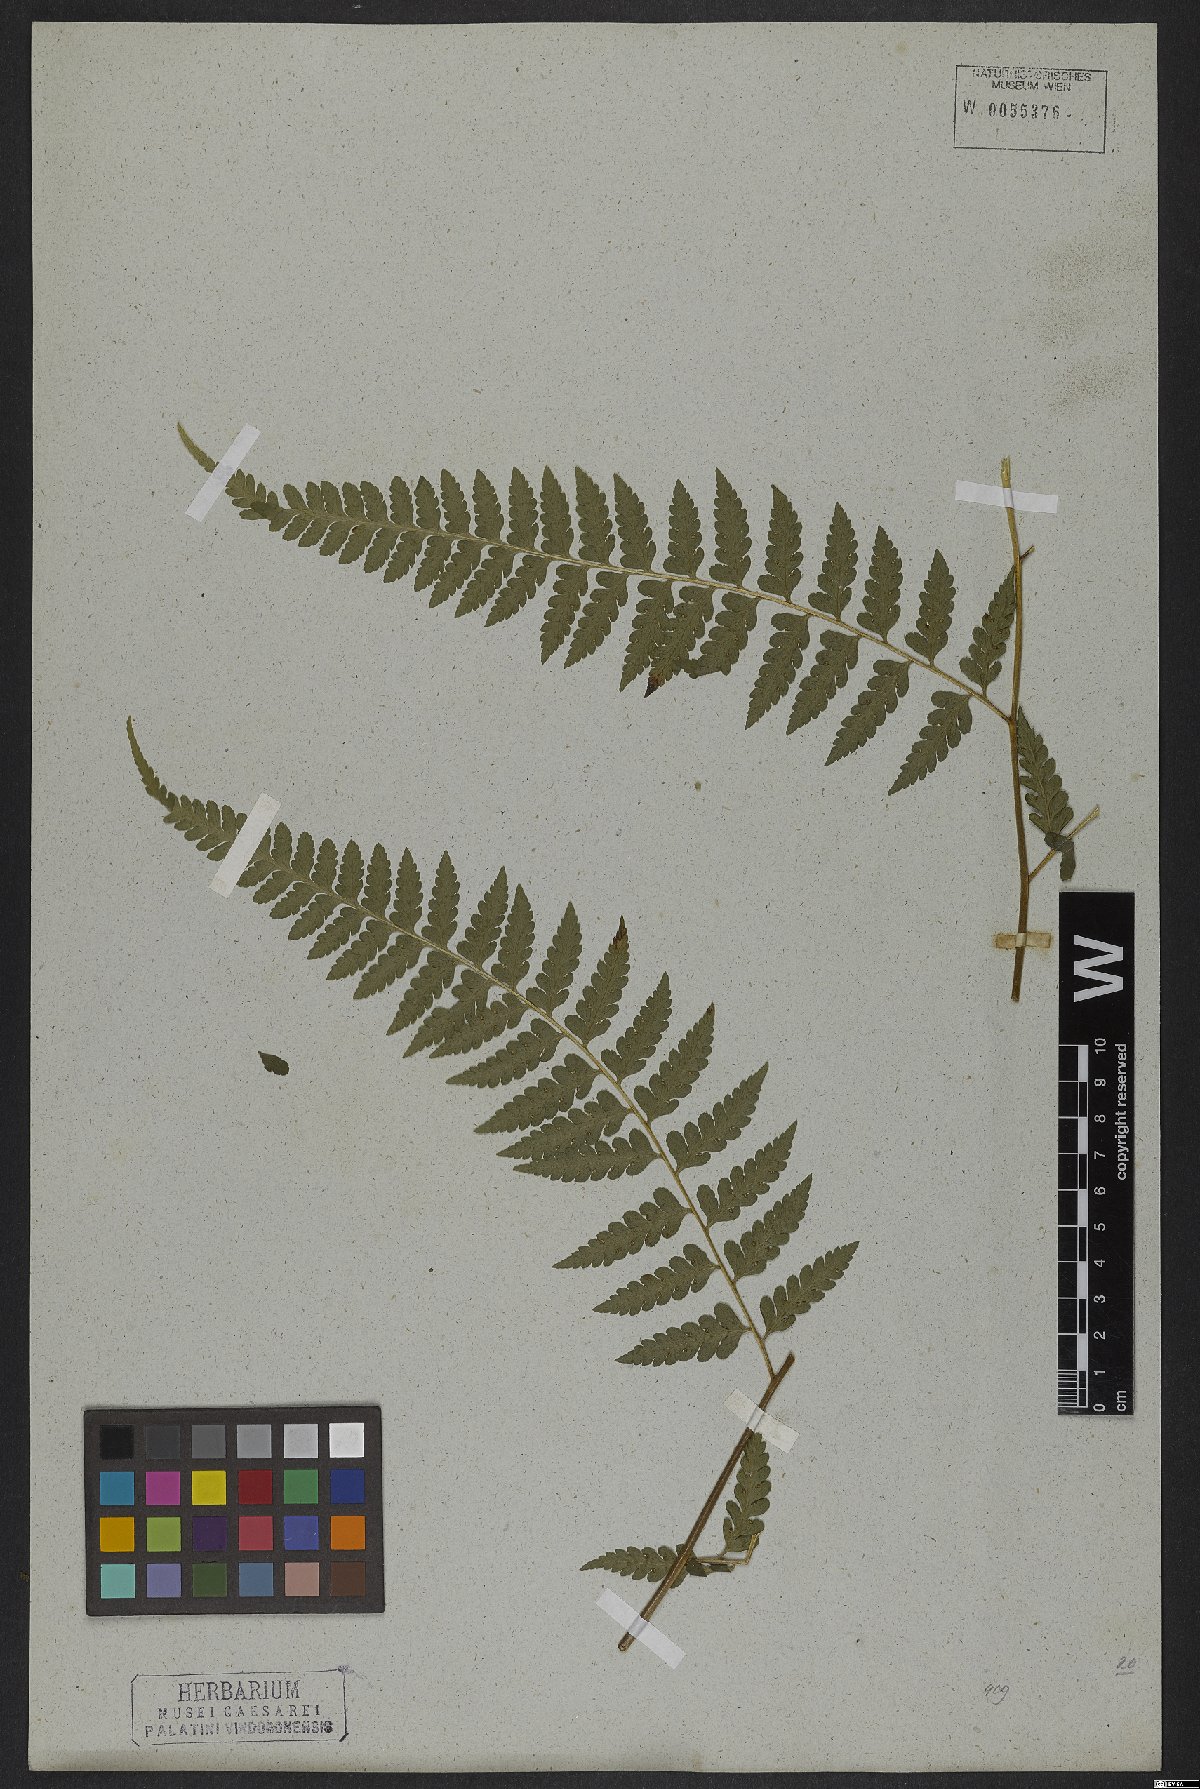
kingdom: Plantae
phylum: Tracheophyta
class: Polypodiopsida
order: Polypodiales
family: Dennstaedtiaceae
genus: Dennstaedtia
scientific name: Dennstaedtia arborescens
